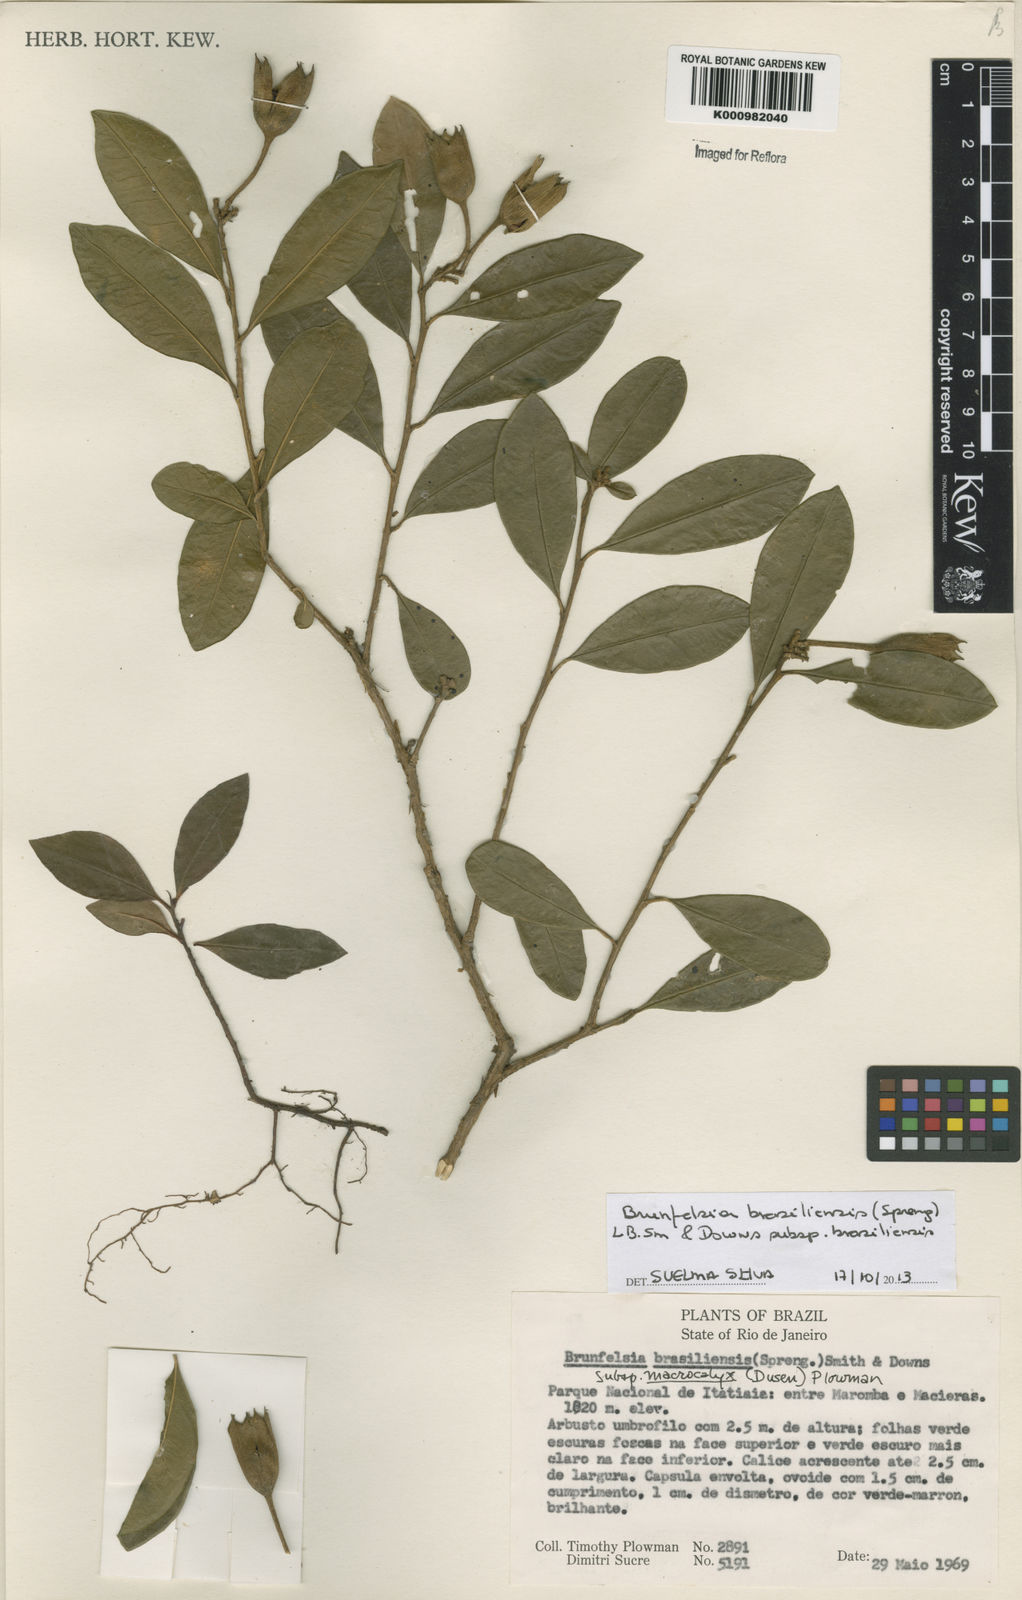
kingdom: Plantae
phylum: Tracheophyta
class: Magnoliopsida
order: Solanales
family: Solanaceae
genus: Brunfelsia
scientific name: Brunfelsia brasiliensis
